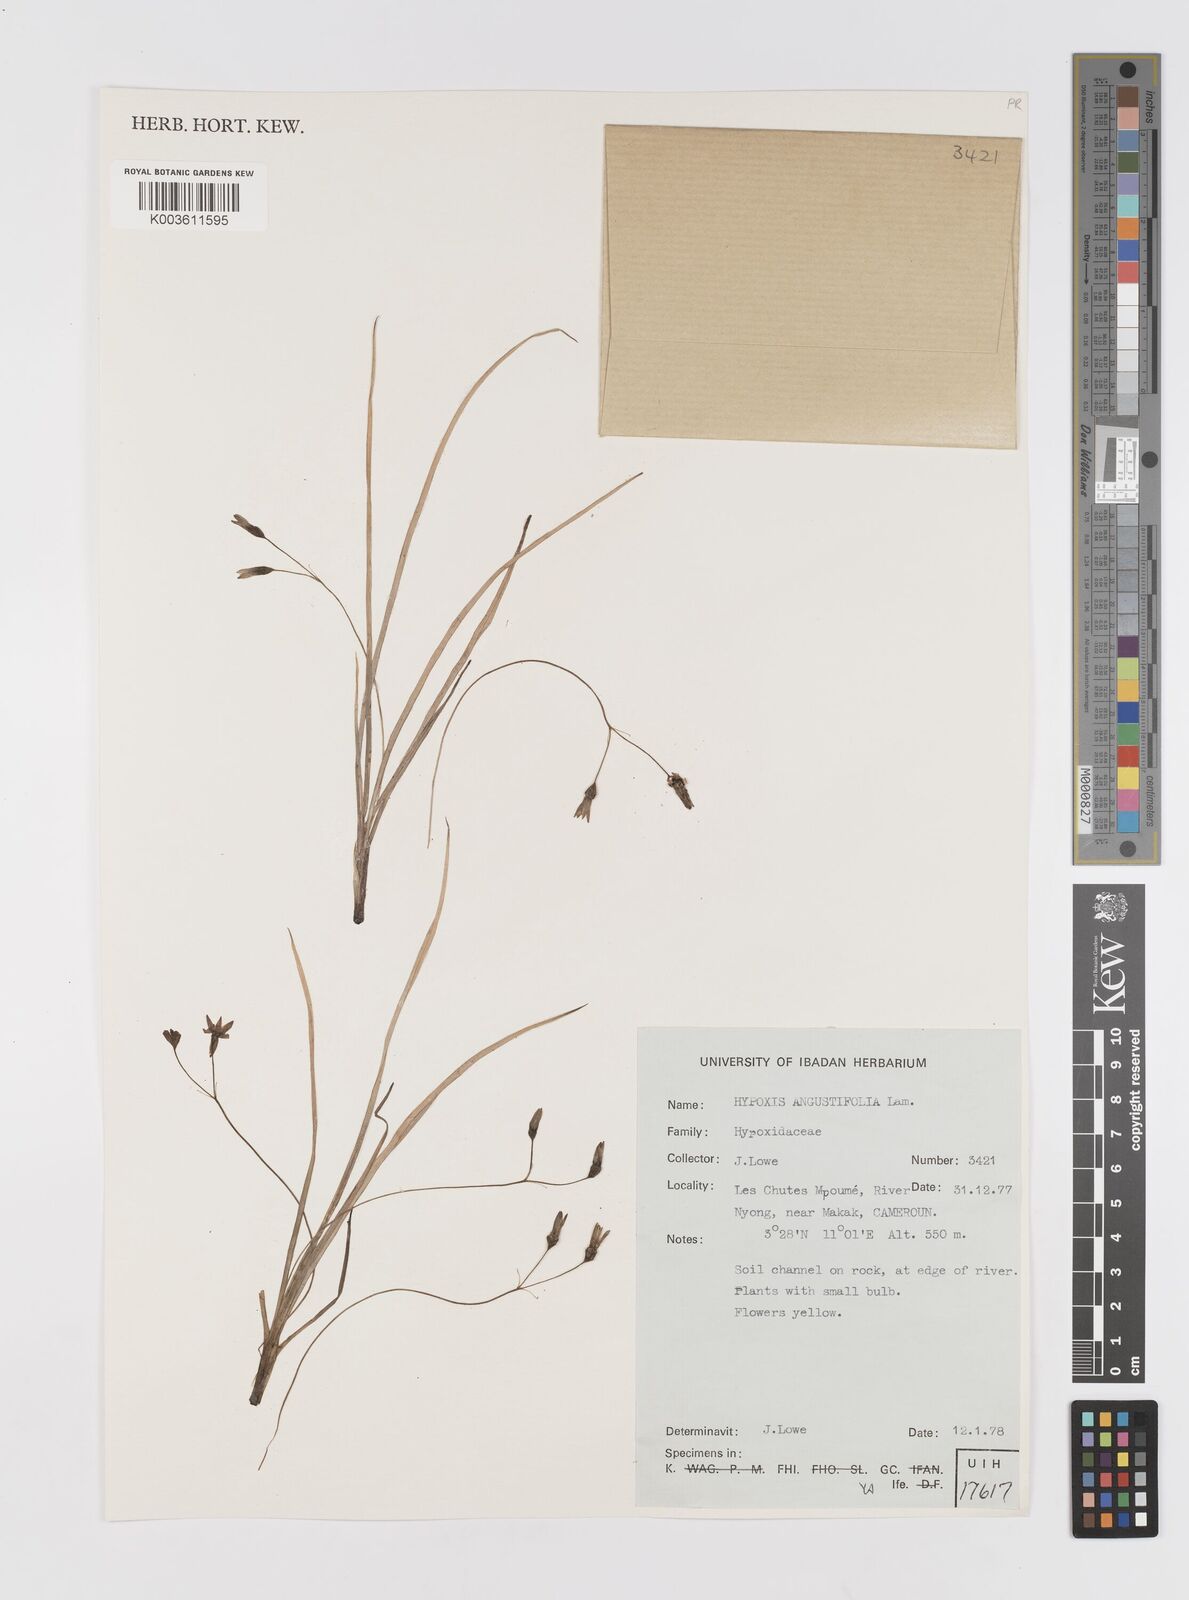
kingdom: Plantae
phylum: Tracheophyta
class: Liliopsida
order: Asparagales
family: Hypoxidaceae
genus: Hypoxis
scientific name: Hypoxis angustifolia
